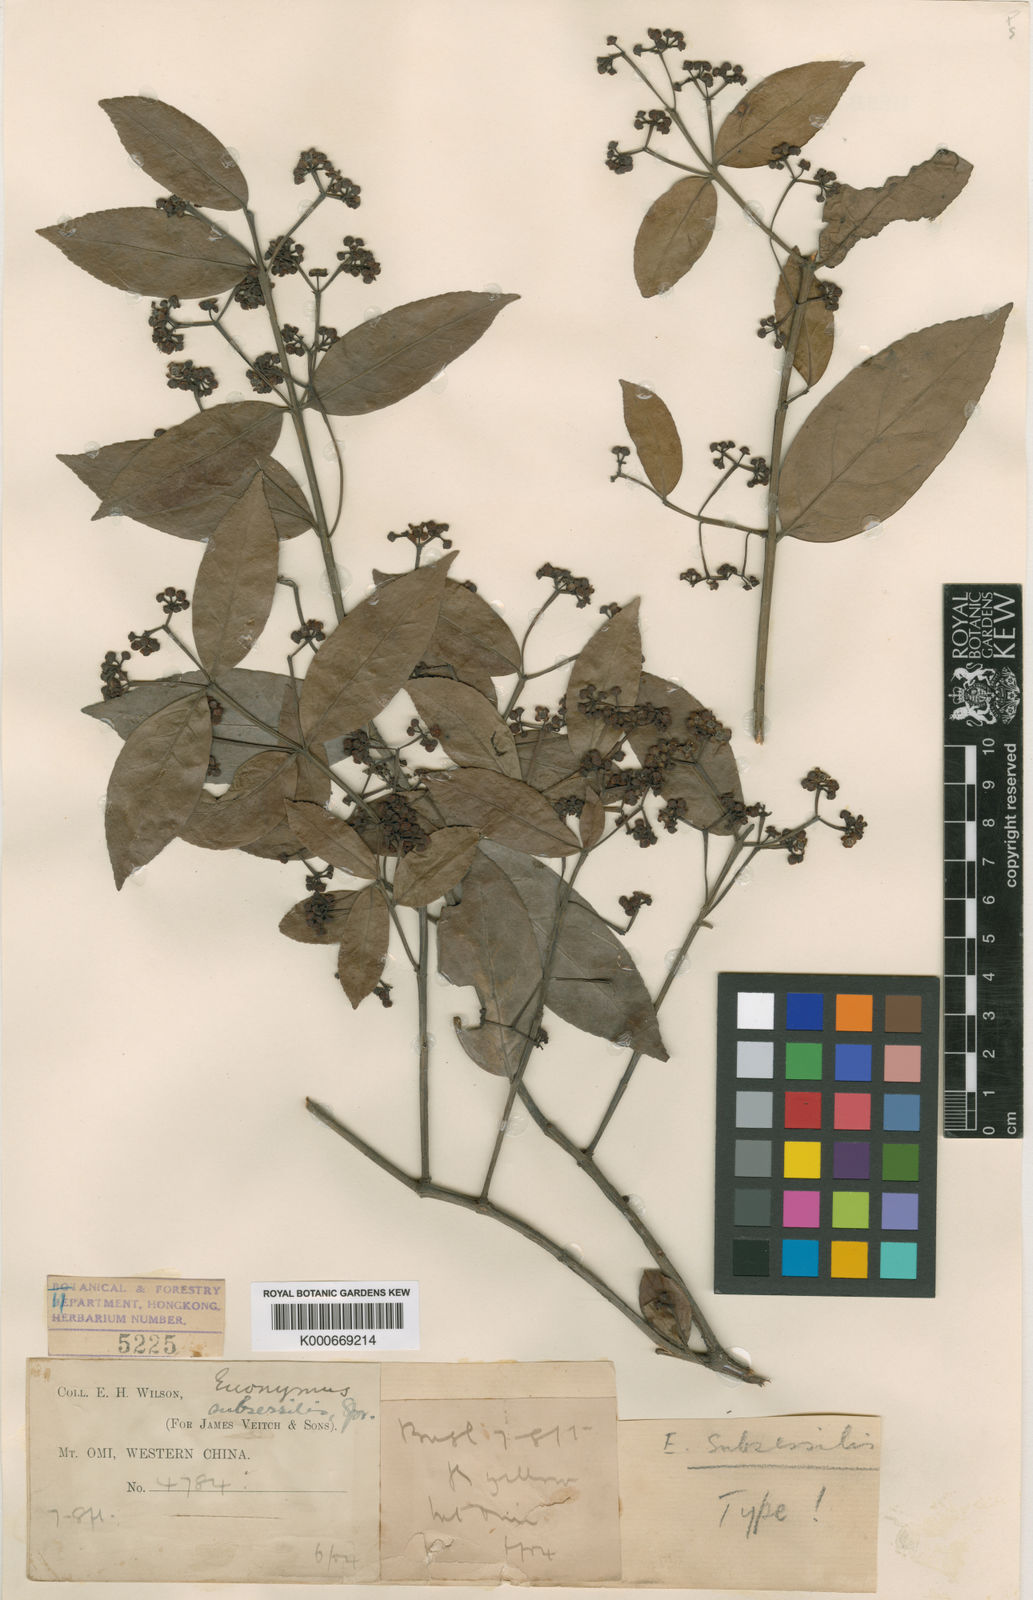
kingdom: Plantae
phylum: Tracheophyta
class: Magnoliopsida
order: Celastrales
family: Celastraceae
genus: Euonymus
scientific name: Euonymus echinatus
